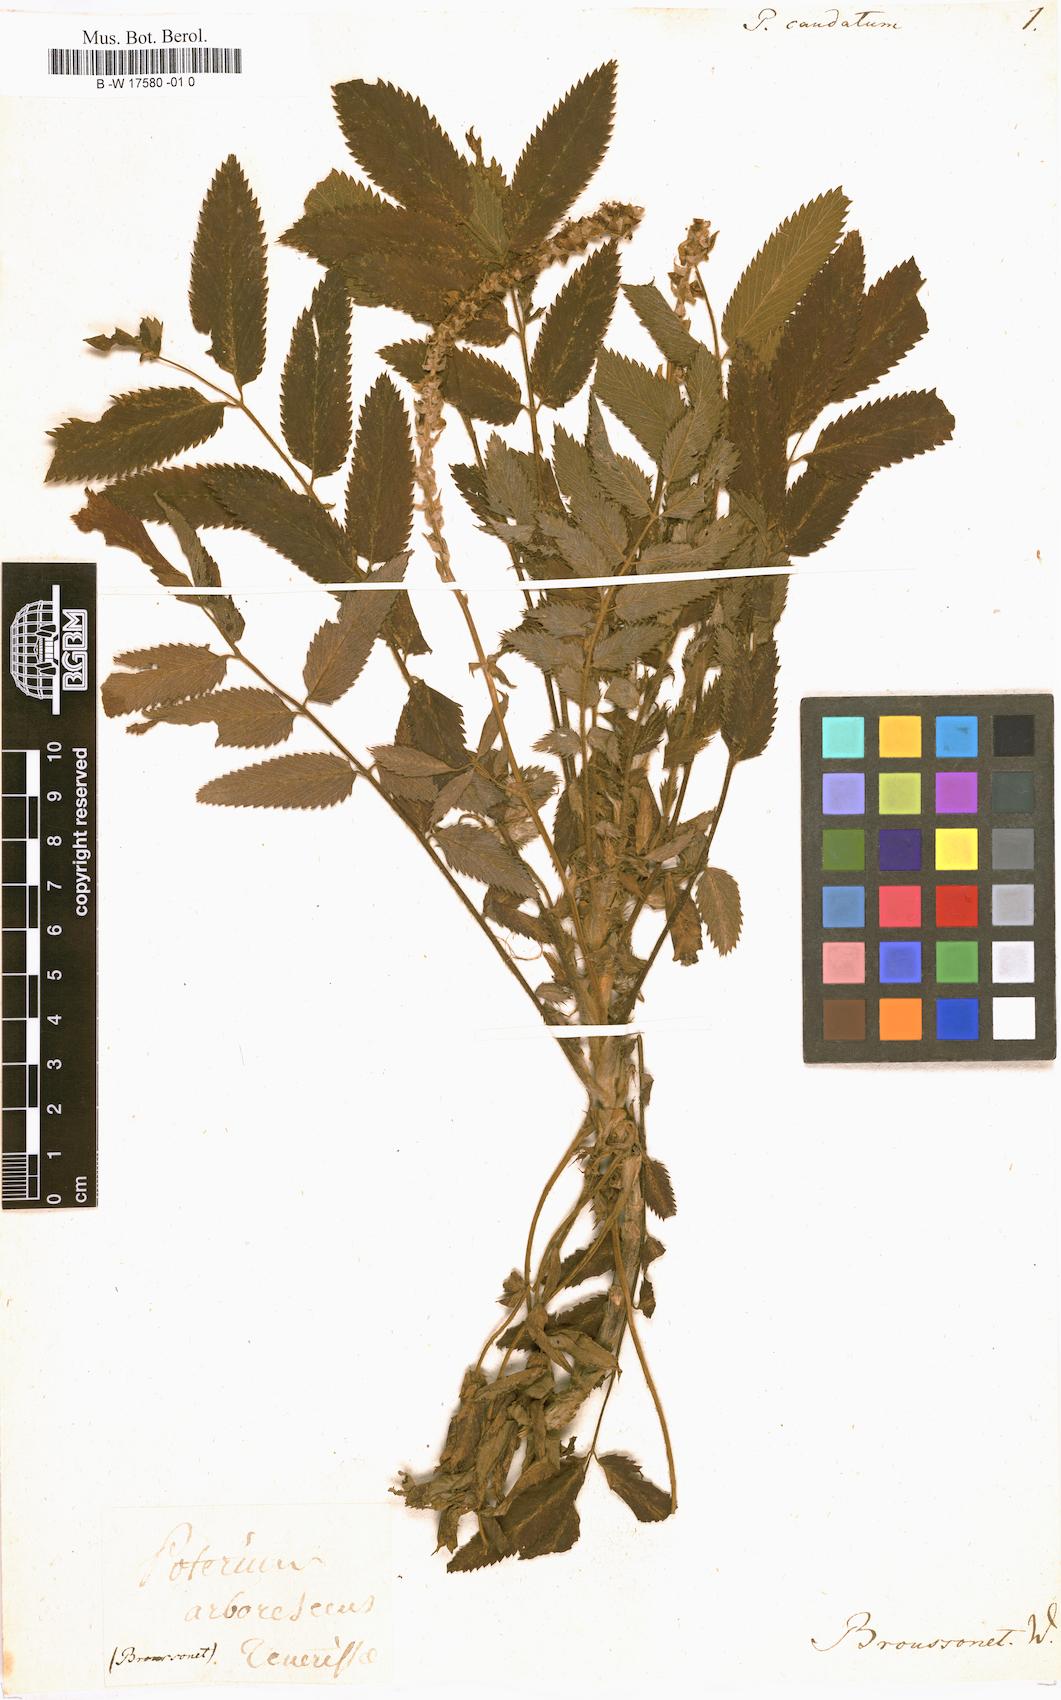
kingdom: Plantae
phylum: Tracheophyta
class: Magnoliopsida
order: Rosales
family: Rosaceae
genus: Bencomia
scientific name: Bencomia caudata
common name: Bencomia
